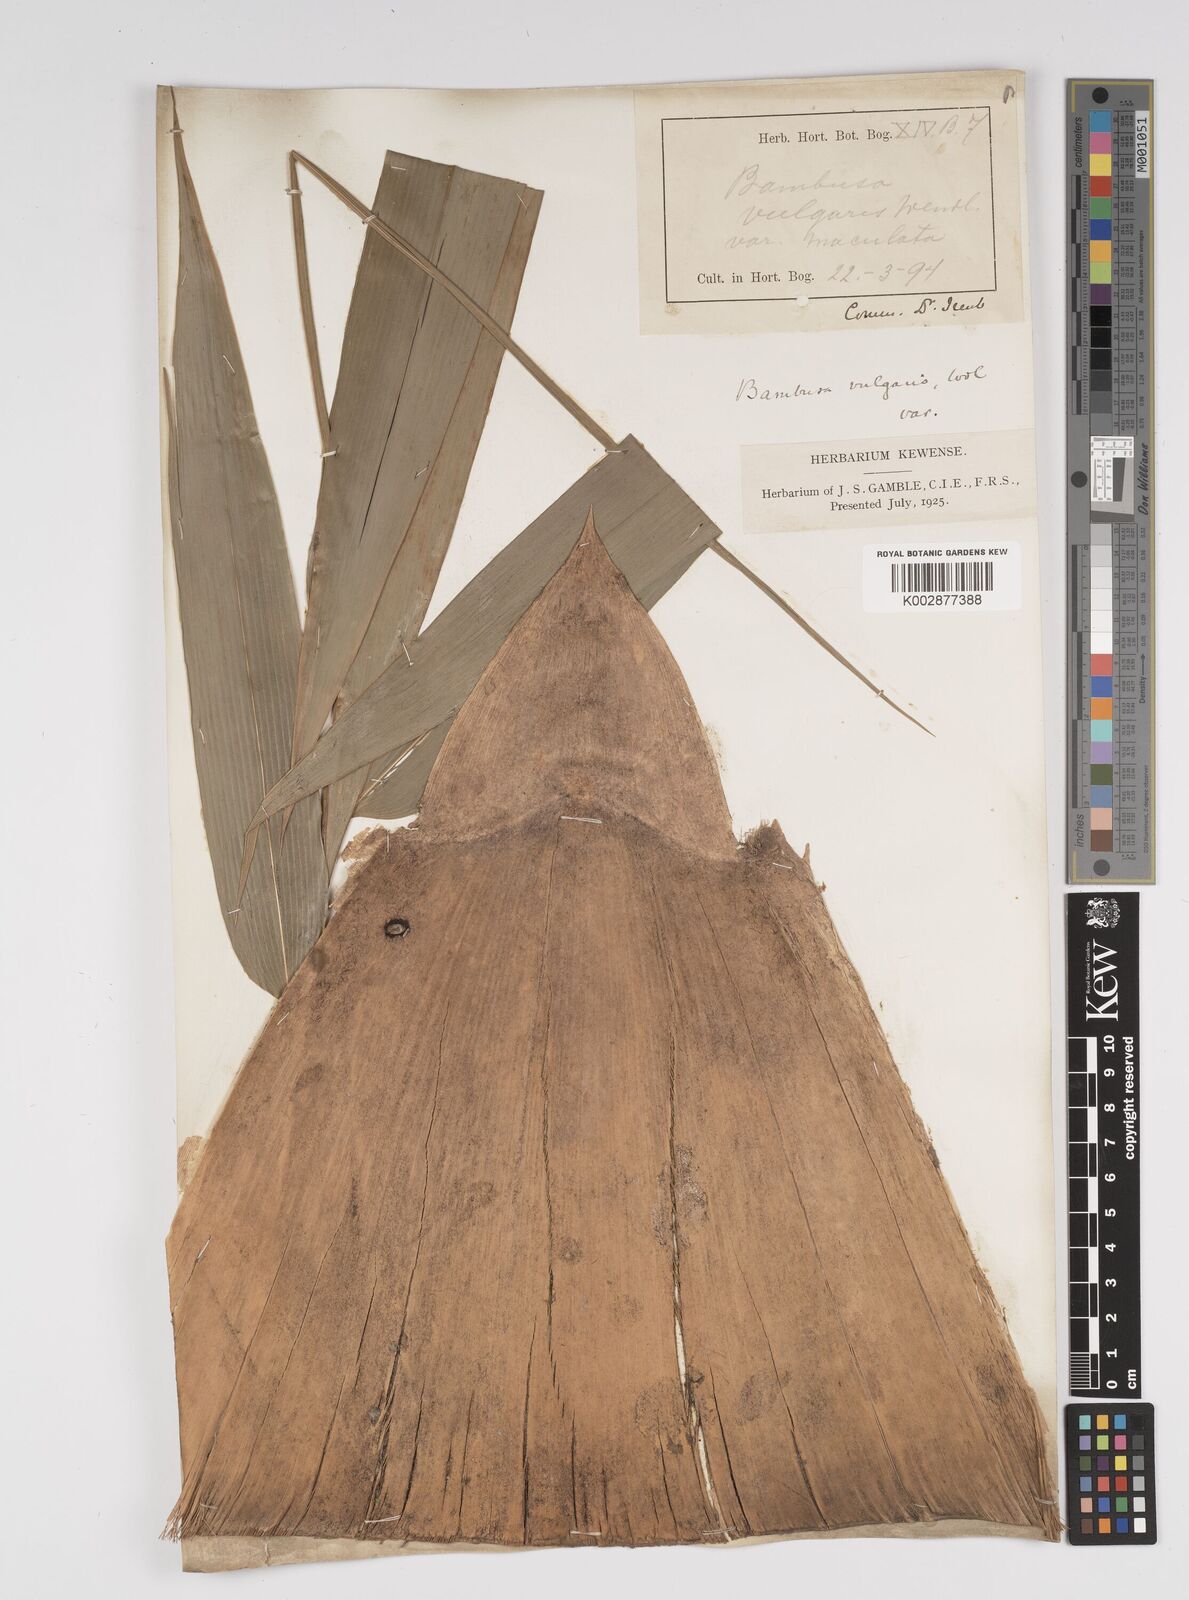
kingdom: Plantae
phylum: Tracheophyta
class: Liliopsida
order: Poales
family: Poaceae
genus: Bambusa
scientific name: Bambusa vulgaris
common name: Common bamboo
